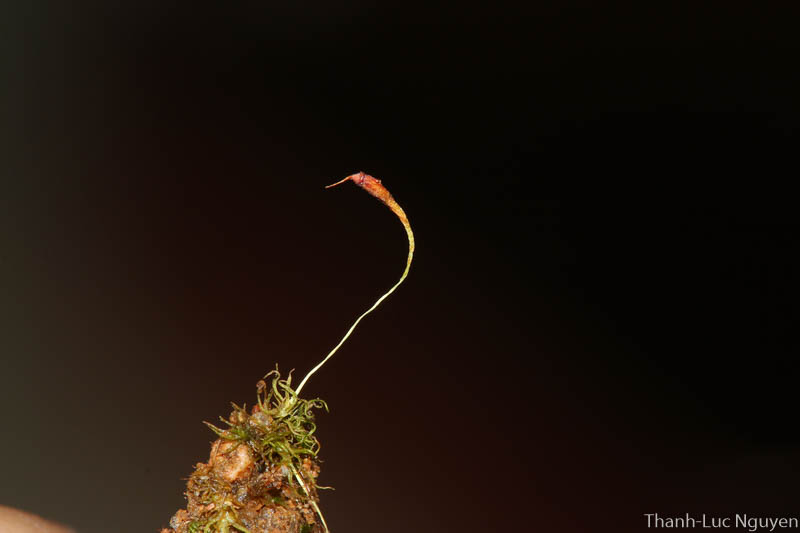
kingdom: Plantae
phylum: Bryophyta
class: Bryopsida
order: Dicranales
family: Bruchiaceae
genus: Trematodon
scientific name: Trematodon
